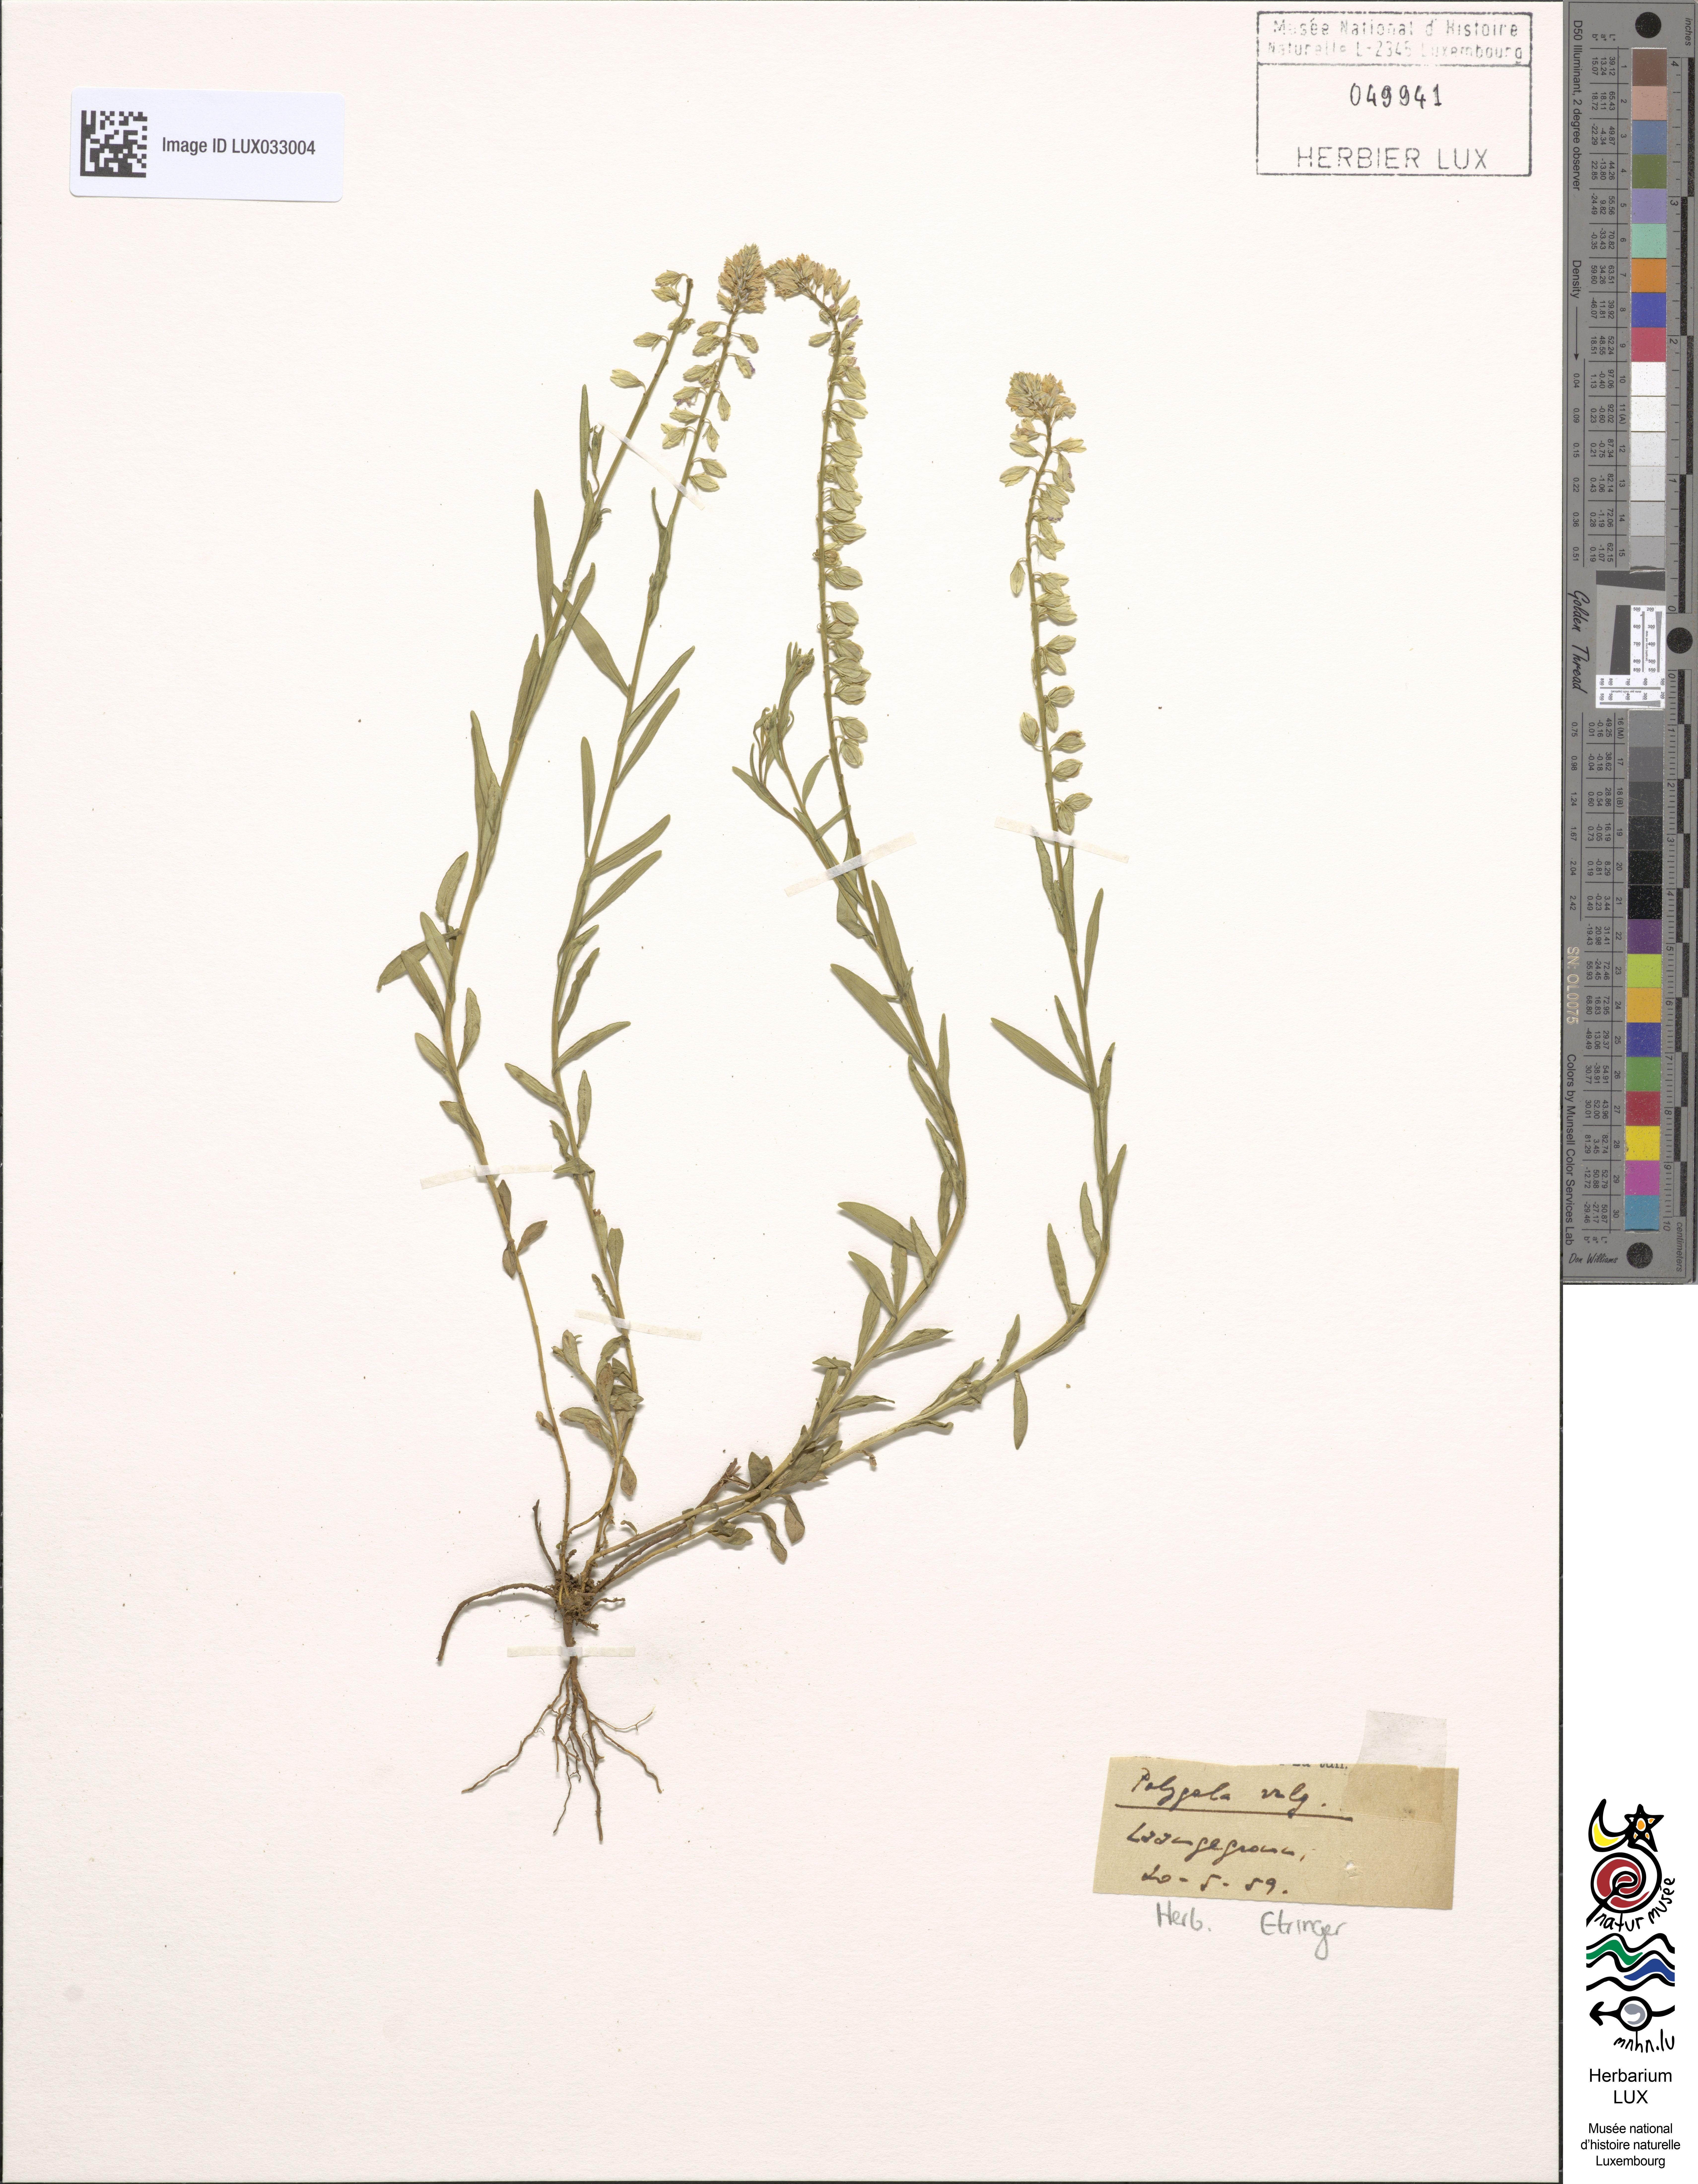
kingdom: Plantae
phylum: Tracheophyta
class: Magnoliopsida
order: Fabales
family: Polygalaceae
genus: Polygala
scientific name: Polygala vulgaris
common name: Common milkwort
